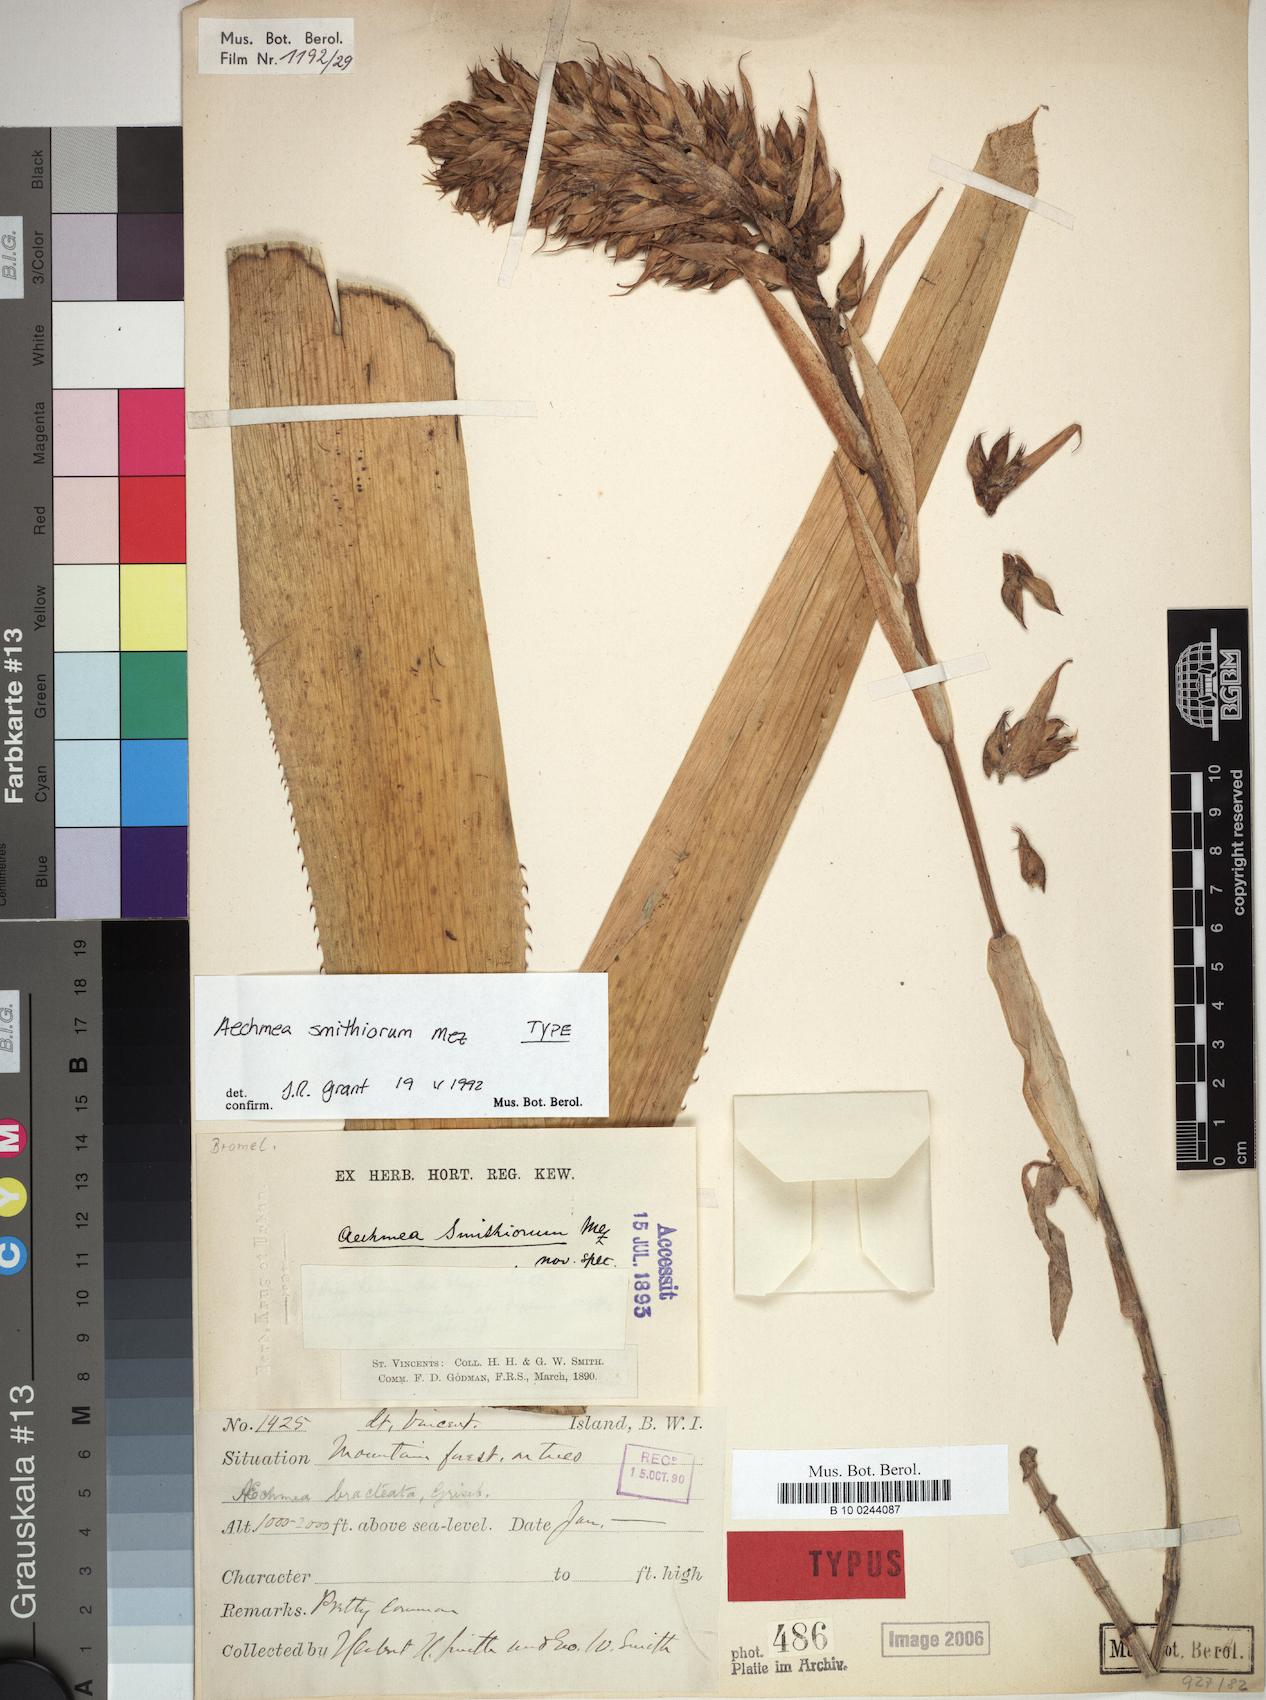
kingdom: Plantae
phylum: Tracheophyta
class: Liliopsida
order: Poales
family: Bromeliaceae
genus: Aechmea
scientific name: Aechmea smithiorum
